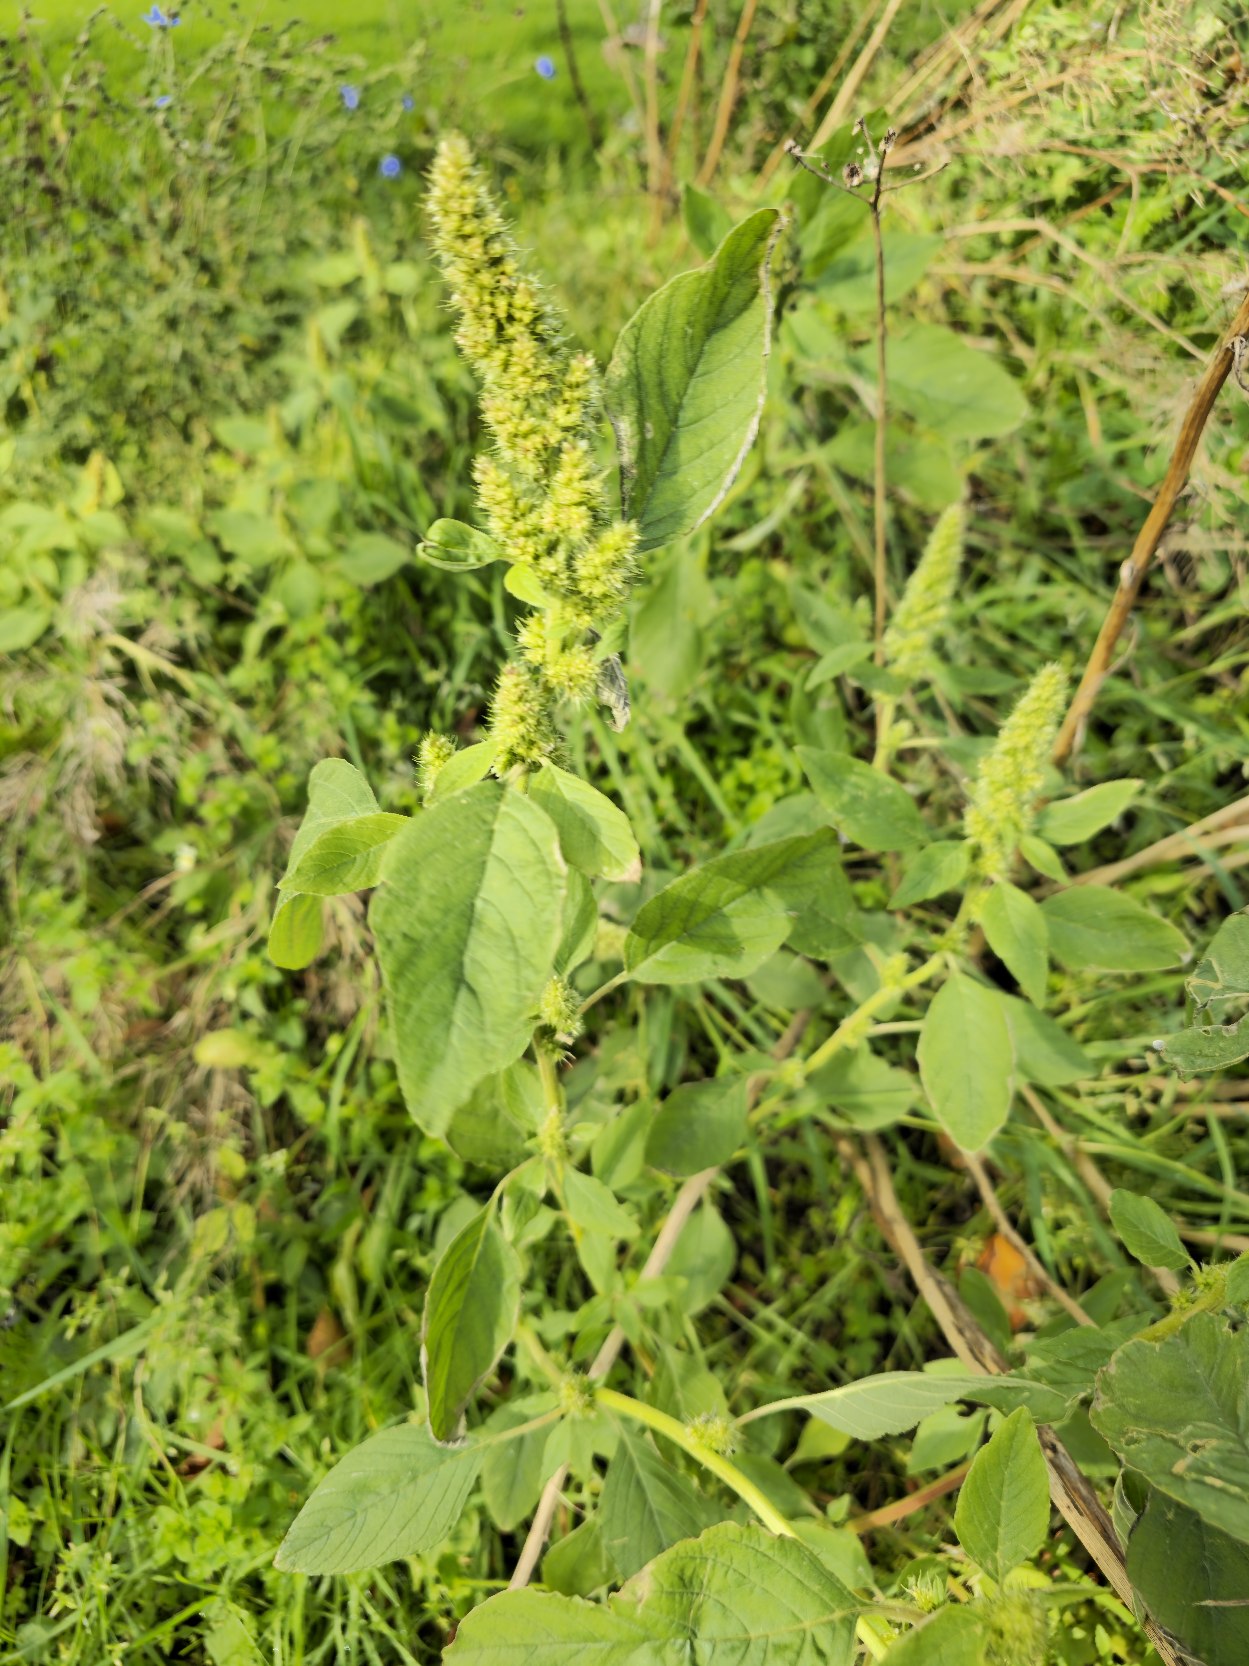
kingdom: Plantae
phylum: Tracheophyta
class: Magnoliopsida
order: Caryophyllales
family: Amaranthaceae
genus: Amaranthus
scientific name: Amaranthus retroflexus
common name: Opret amarant
